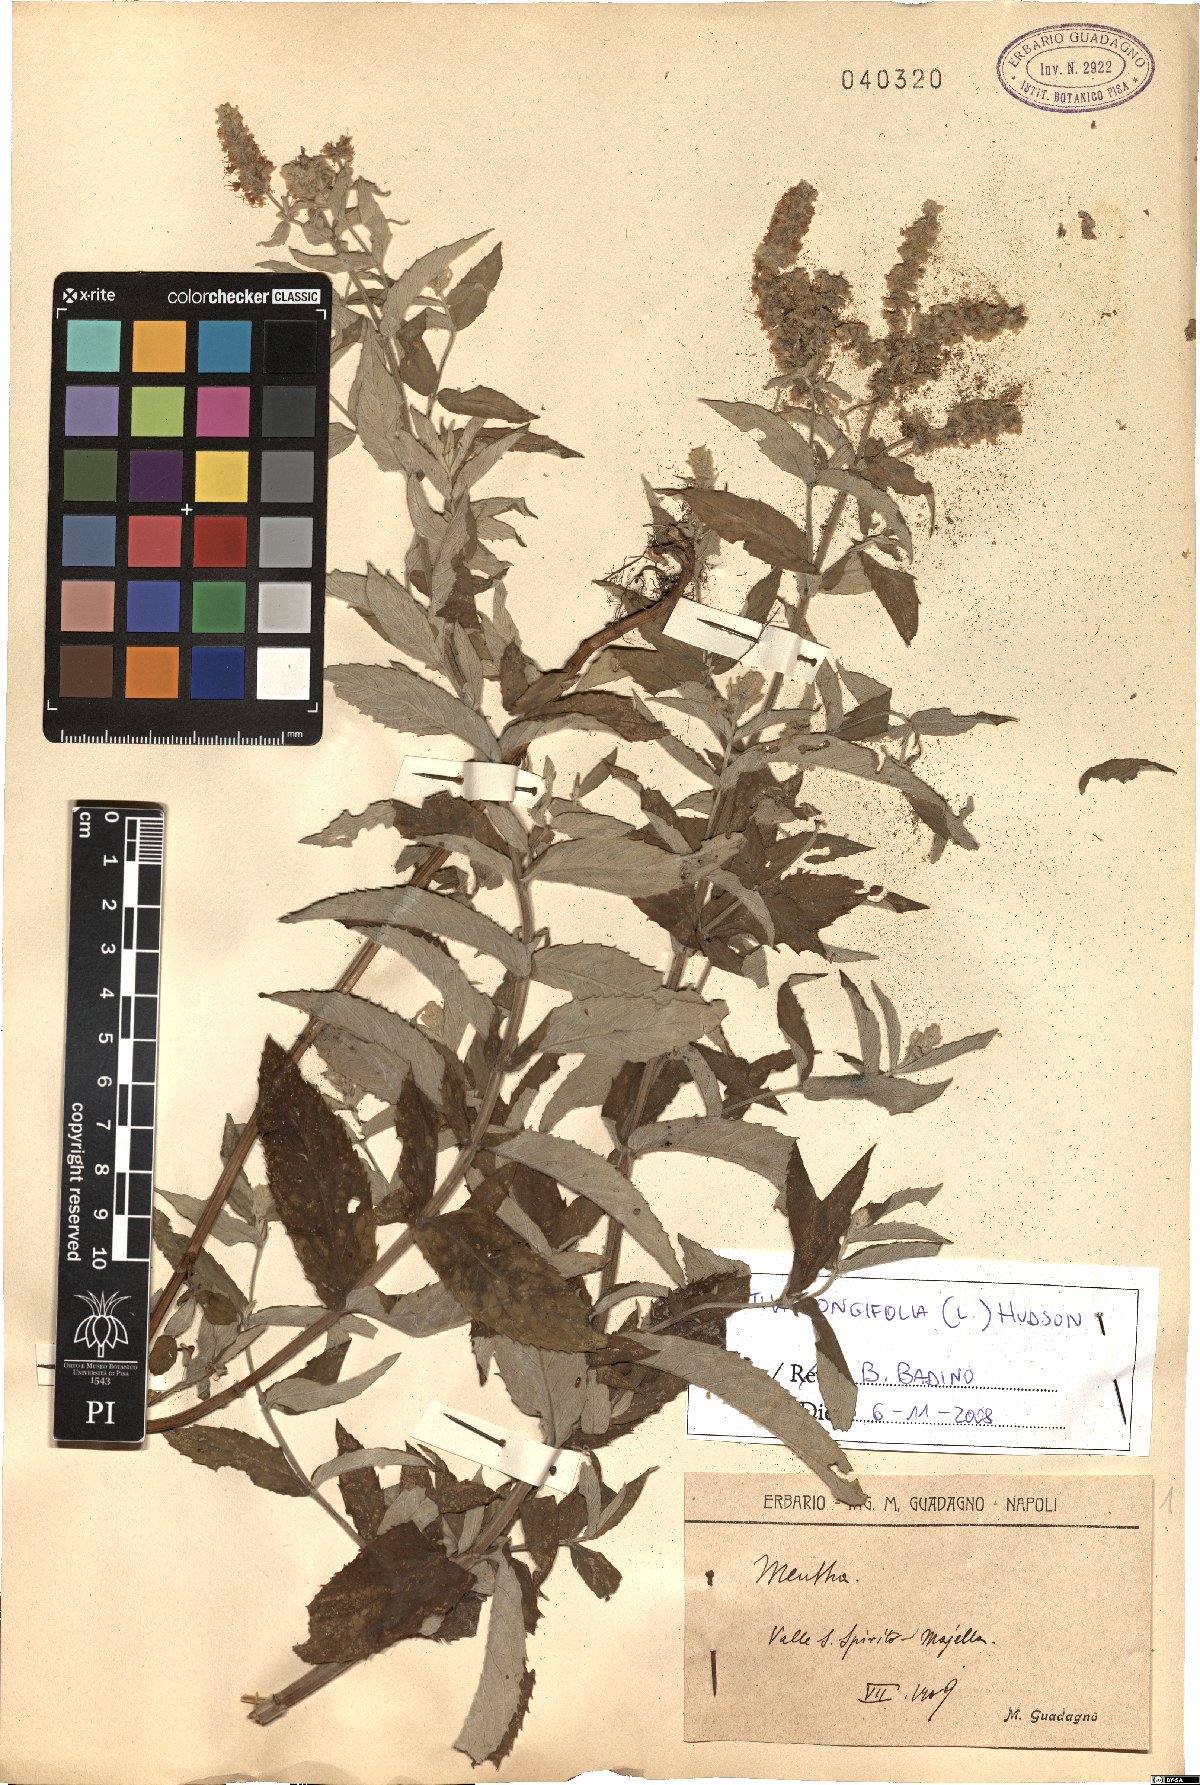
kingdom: Plantae
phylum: Tracheophyta
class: Magnoliopsida
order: Lamiales
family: Lamiaceae
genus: Mentha
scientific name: Mentha longifolia
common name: Horse mint
